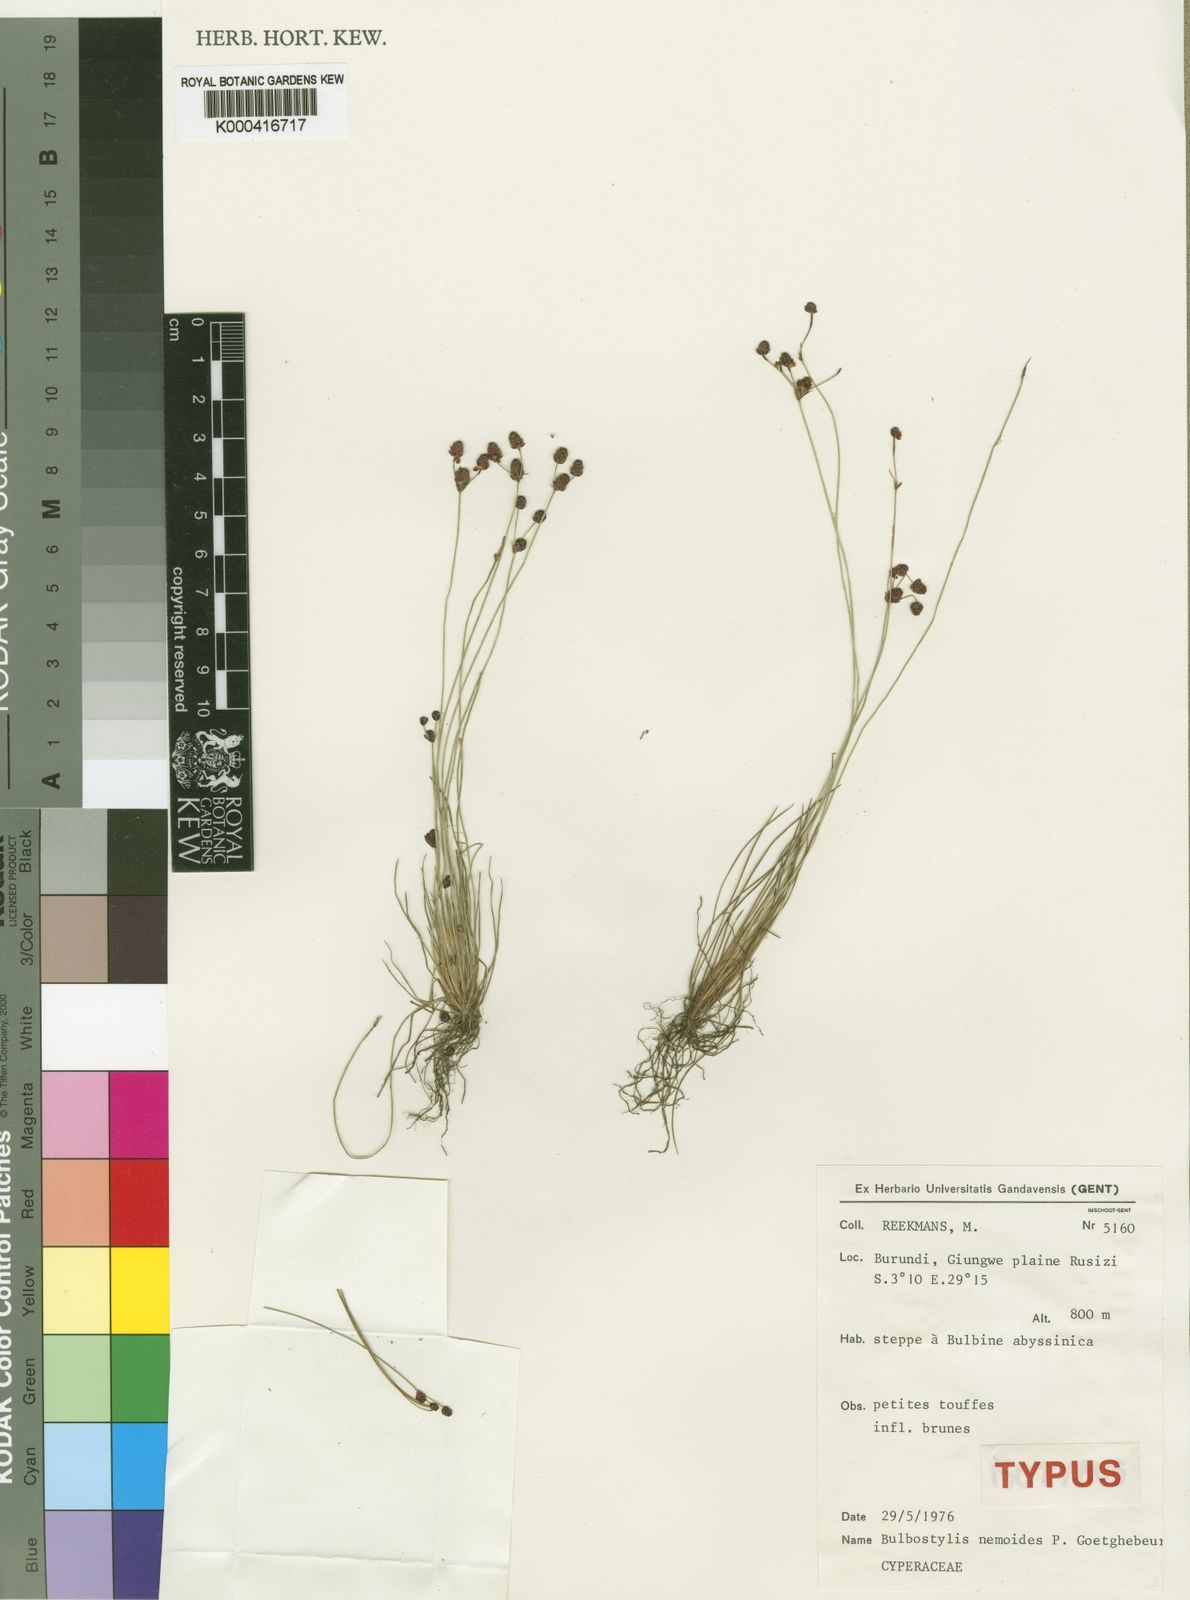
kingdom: Plantae
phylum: Tracheophyta
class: Liliopsida
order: Poales
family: Cyperaceae
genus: Bulbostylis
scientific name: Bulbostylis nemoides
